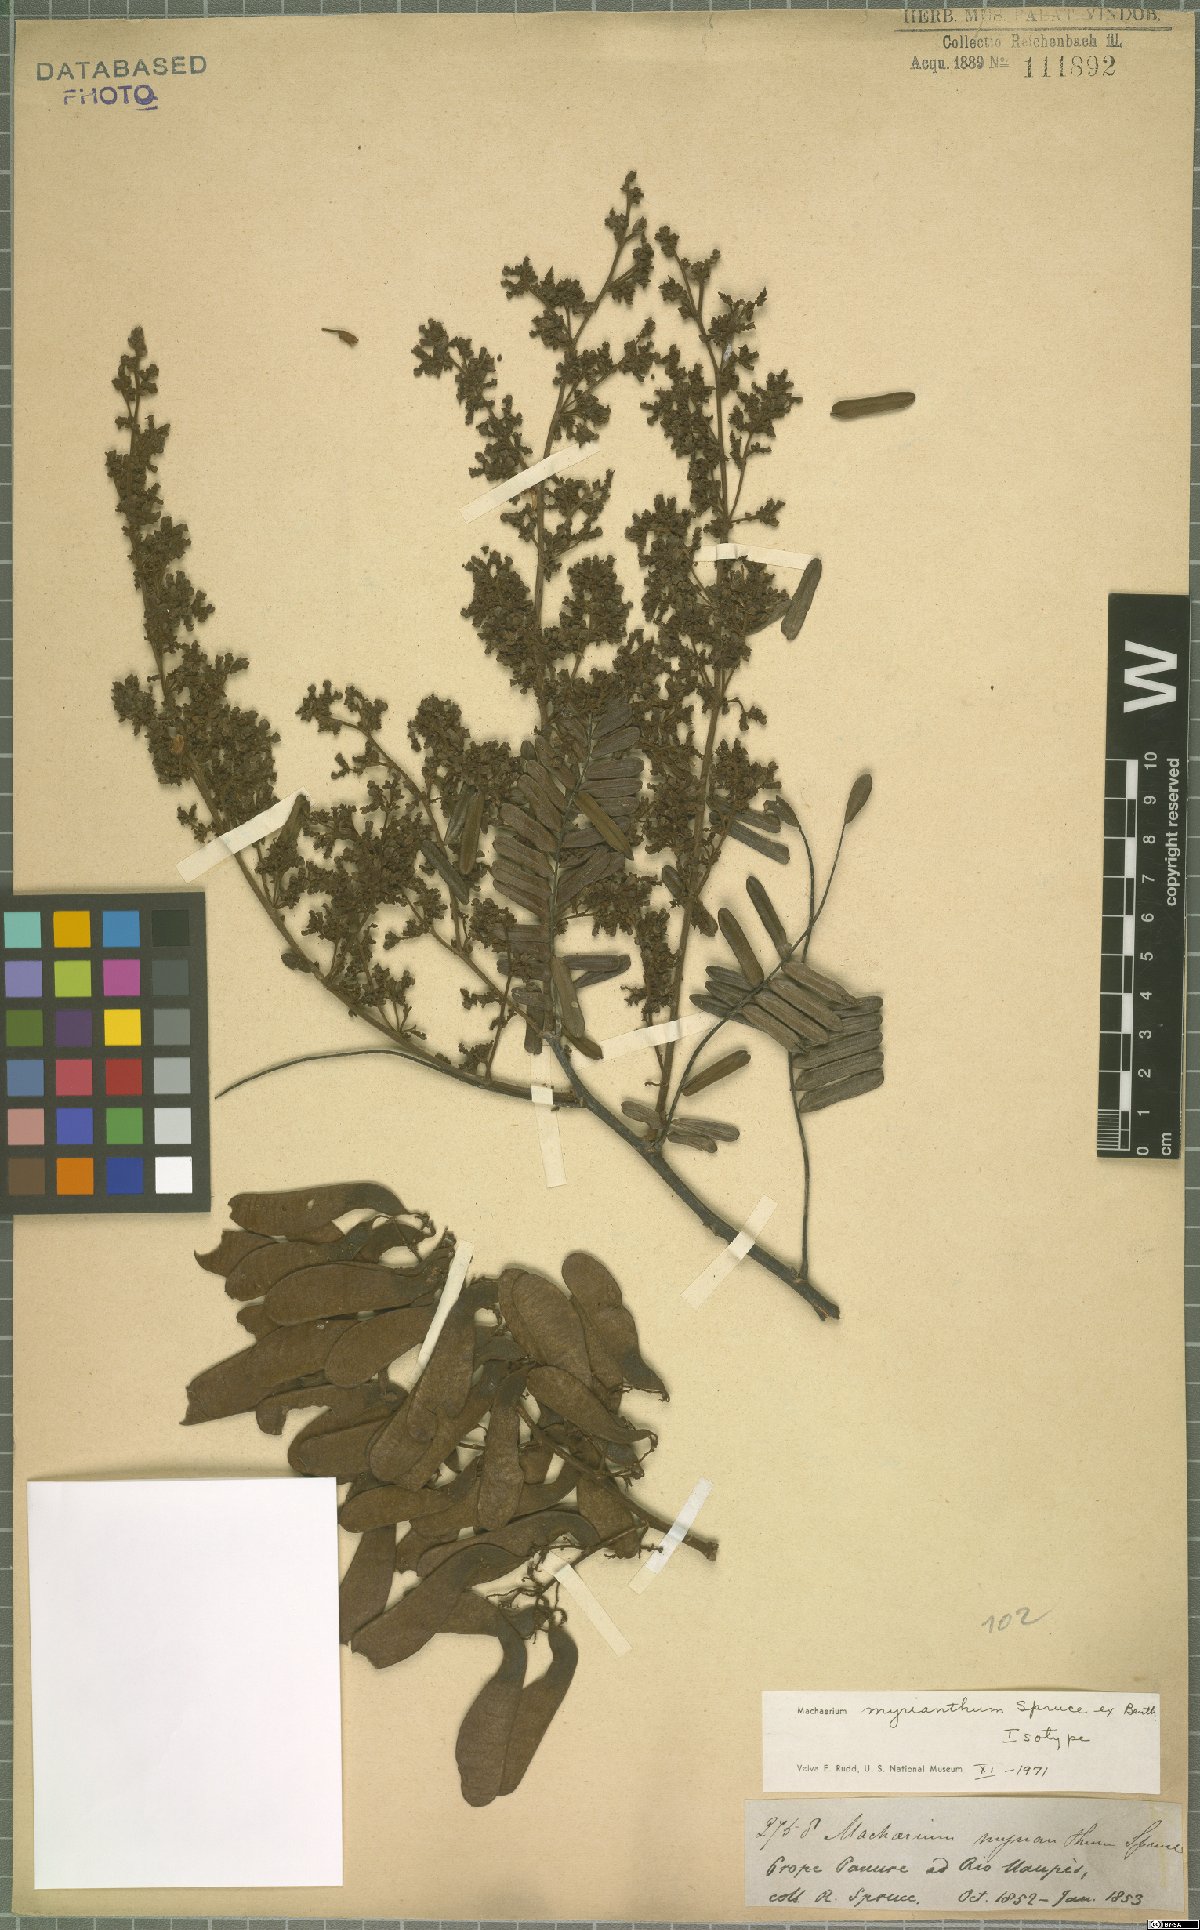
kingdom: Plantae
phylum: Tracheophyta
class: Magnoliopsida
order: Fabales
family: Fabaceae
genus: Machaerium
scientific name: Machaerium myrianthum
